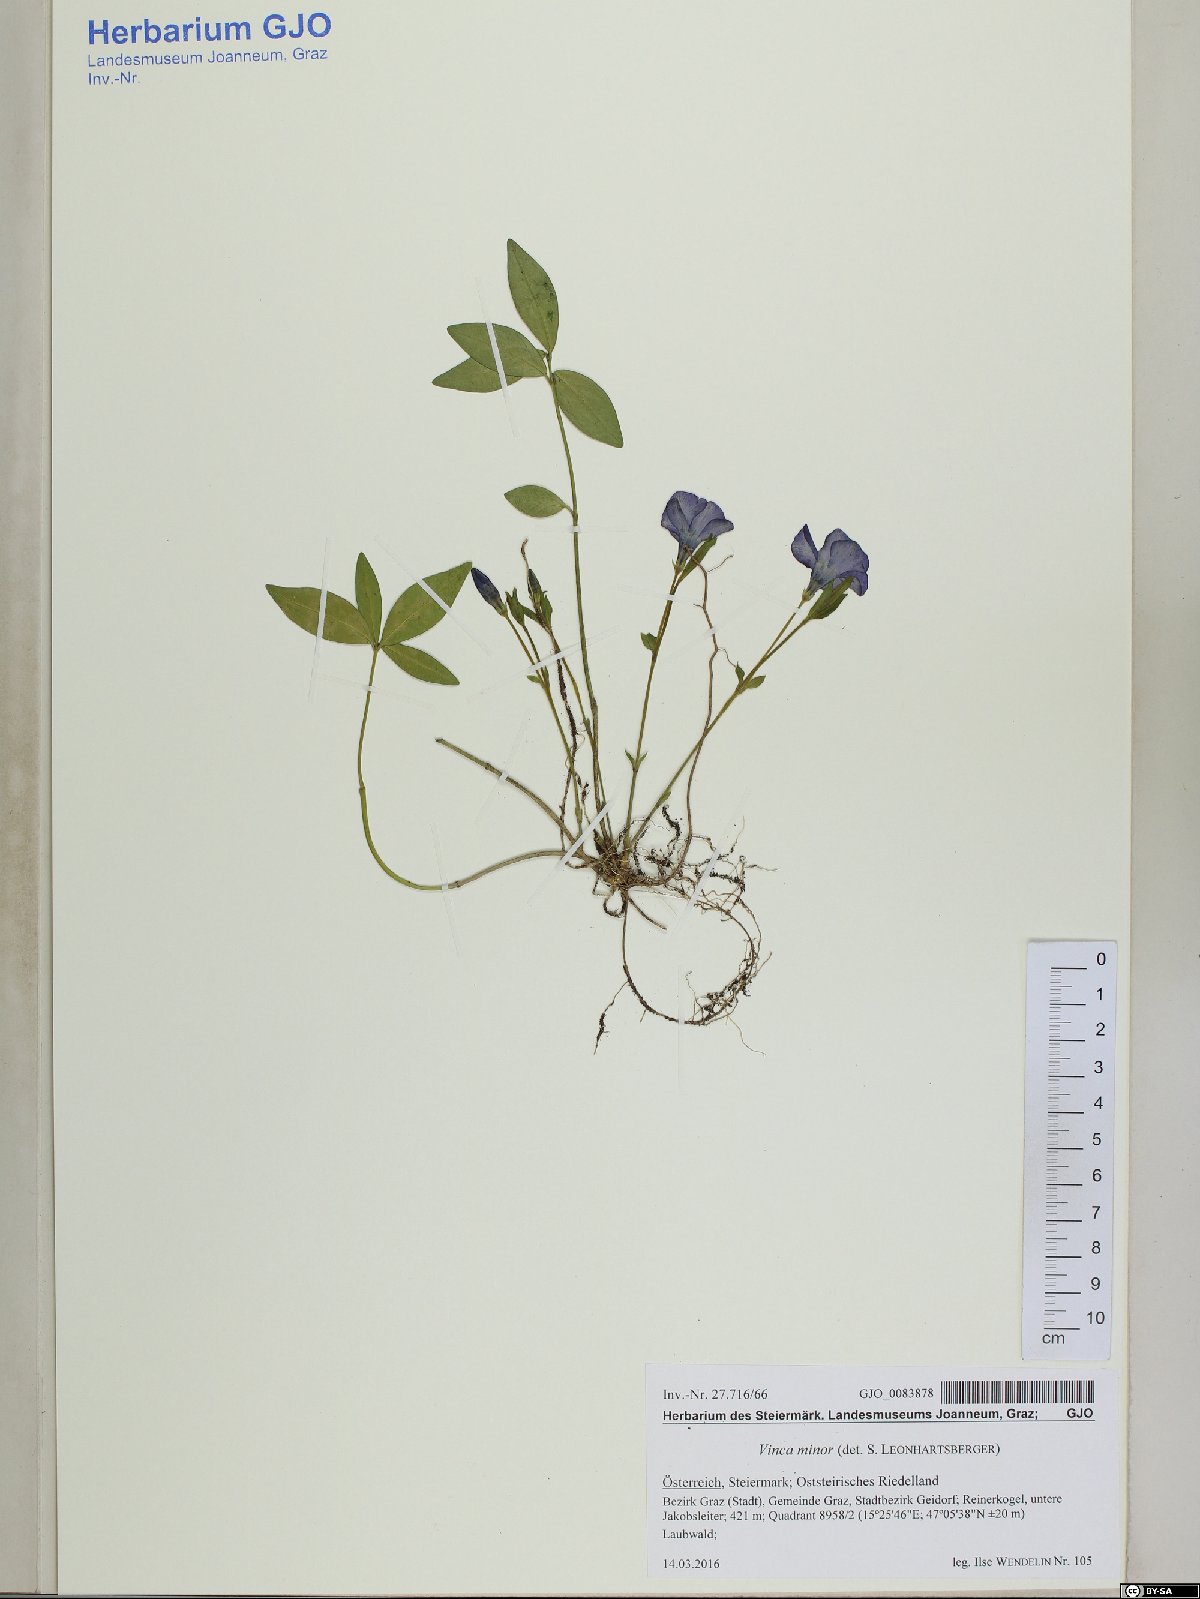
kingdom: Plantae
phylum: Tracheophyta
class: Magnoliopsida
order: Gentianales
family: Apocynaceae
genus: Vinca
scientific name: Vinca minor
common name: Lesser periwinkle
